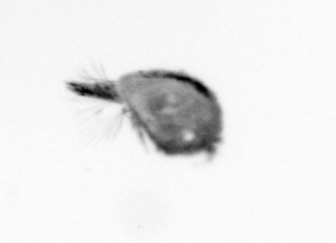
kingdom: Animalia
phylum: Arthropoda
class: Maxillopoda
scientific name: Maxillopoda
